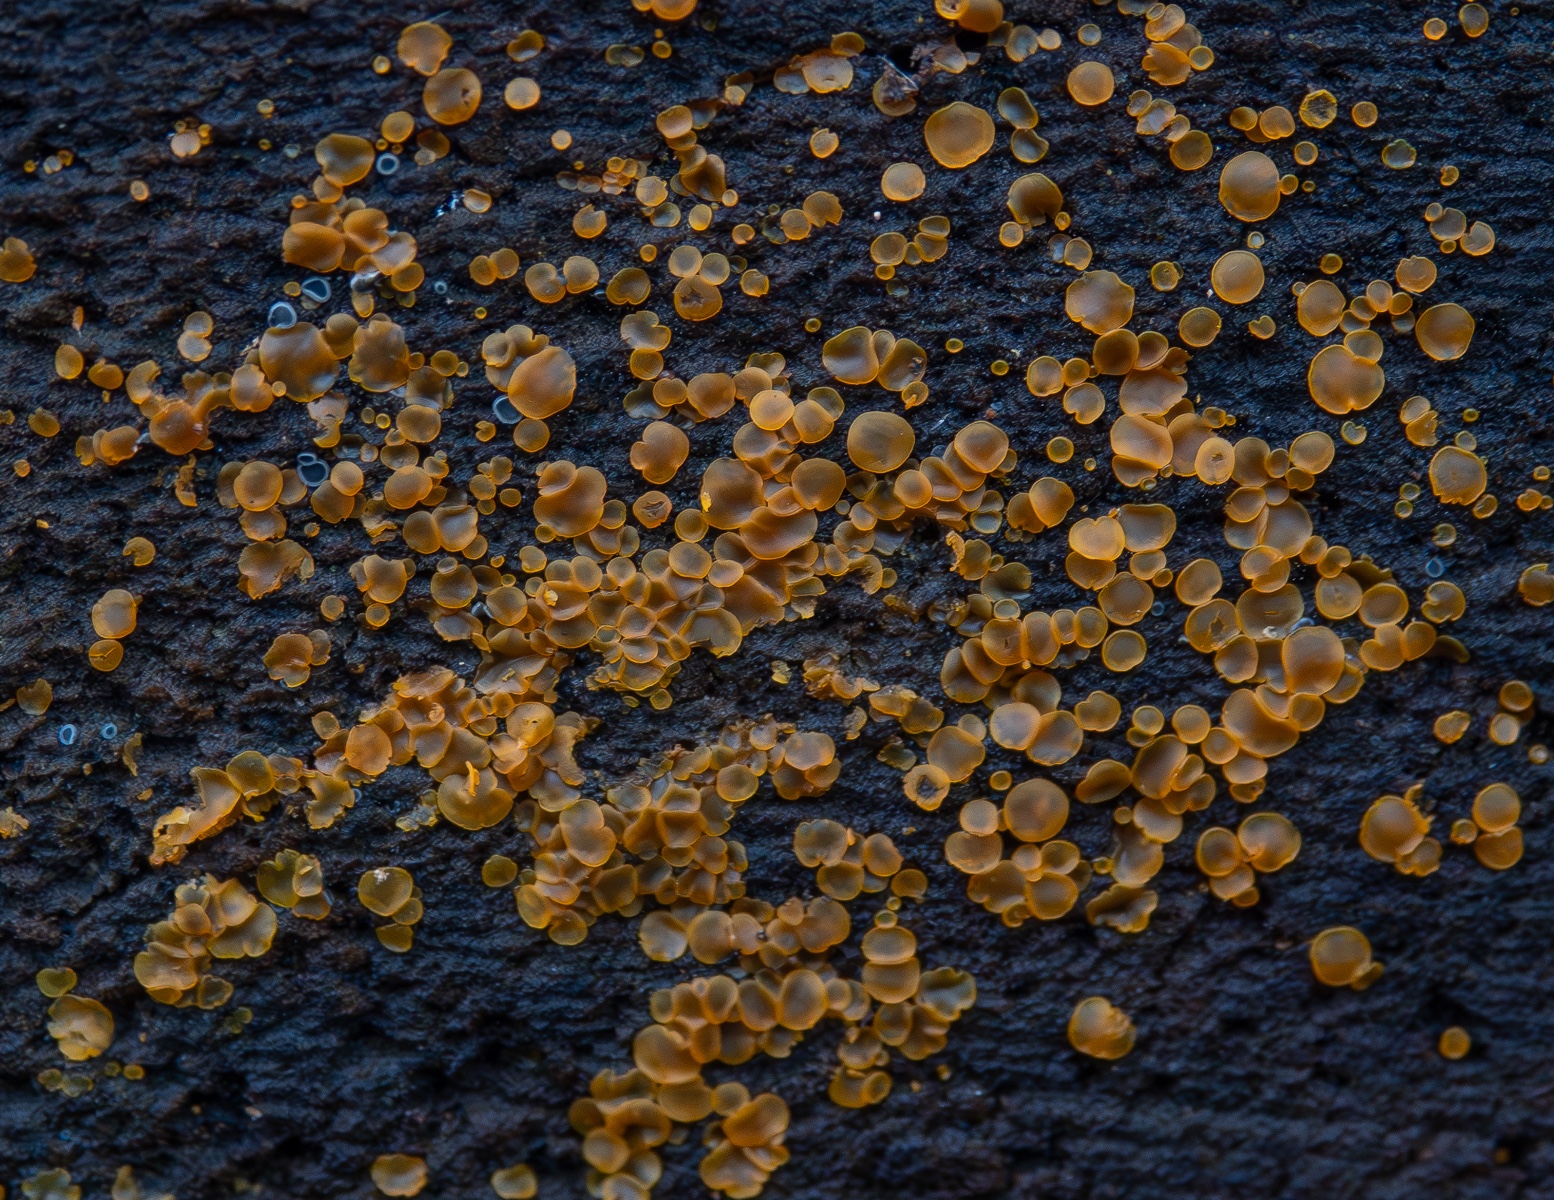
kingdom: Fungi
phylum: Ascomycota
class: Orbiliomycetes
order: Orbiliales
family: Orbiliaceae
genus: Orbilia
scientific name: Orbilia xanthostigma
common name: krumsporet voksskive
